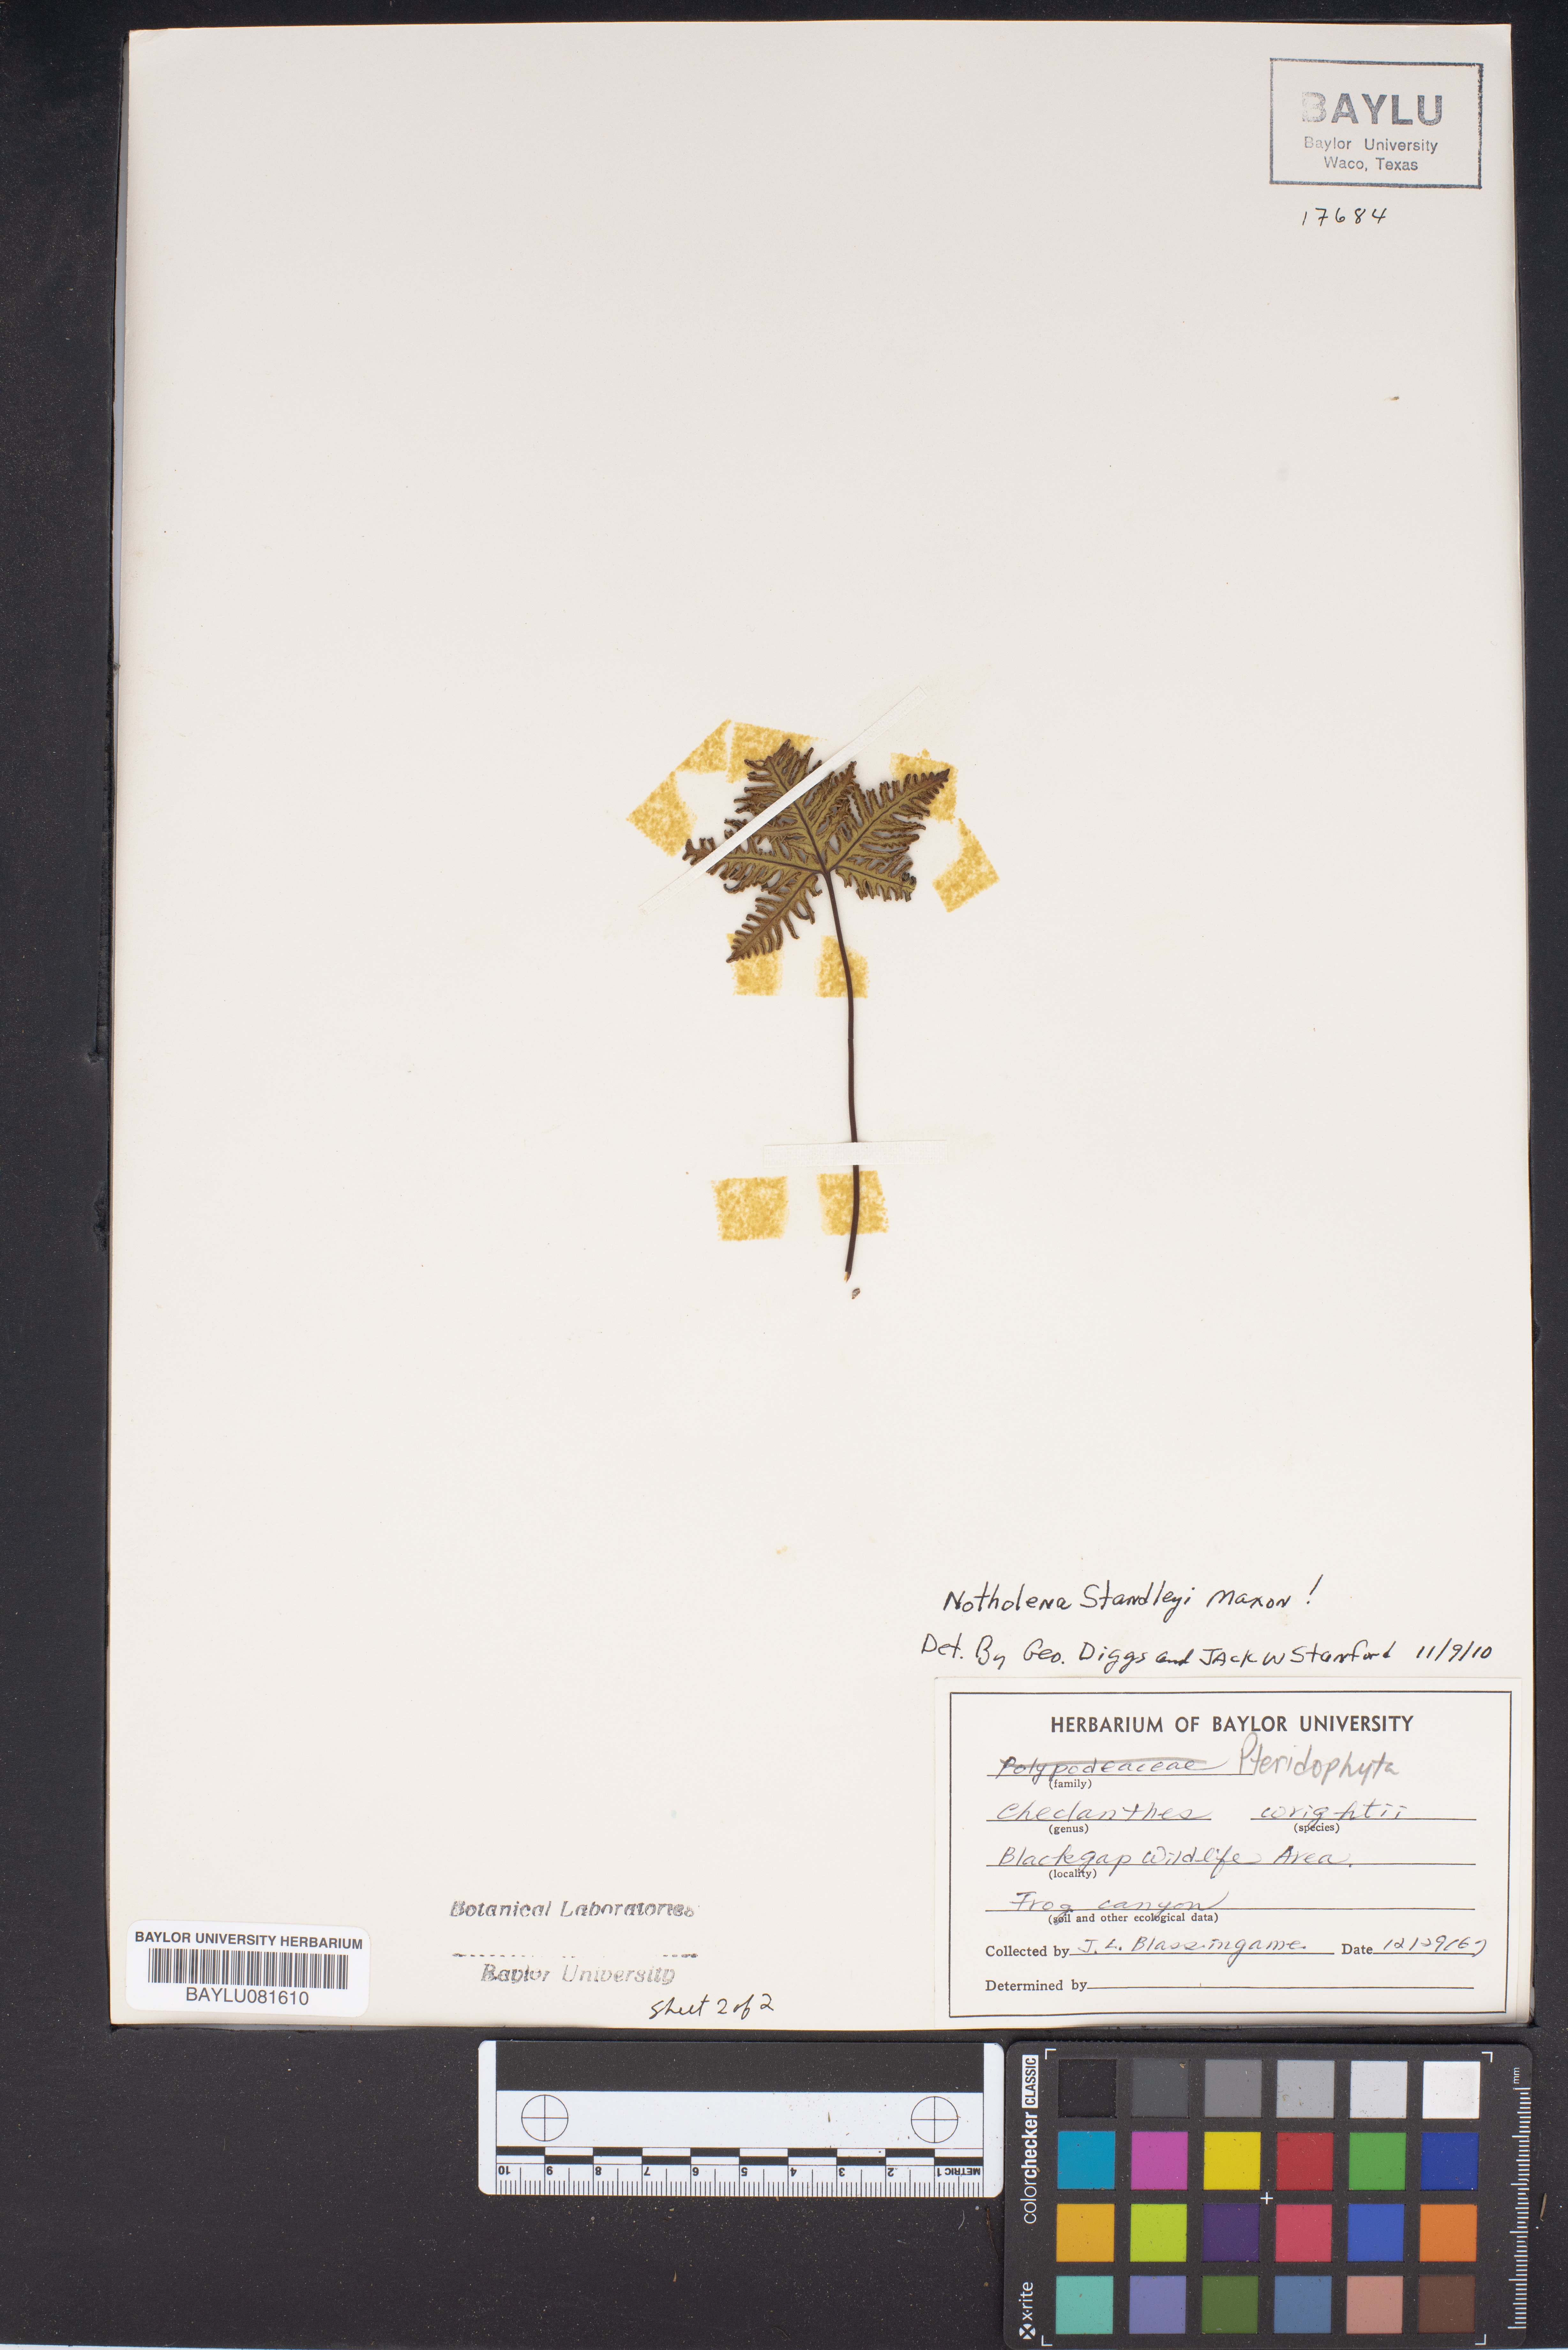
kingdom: Plantae
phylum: Tracheophyta
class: Polypodiopsida
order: Polypodiales
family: Pteridaceae
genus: Myriopteris
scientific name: Myriopteris wrightii
